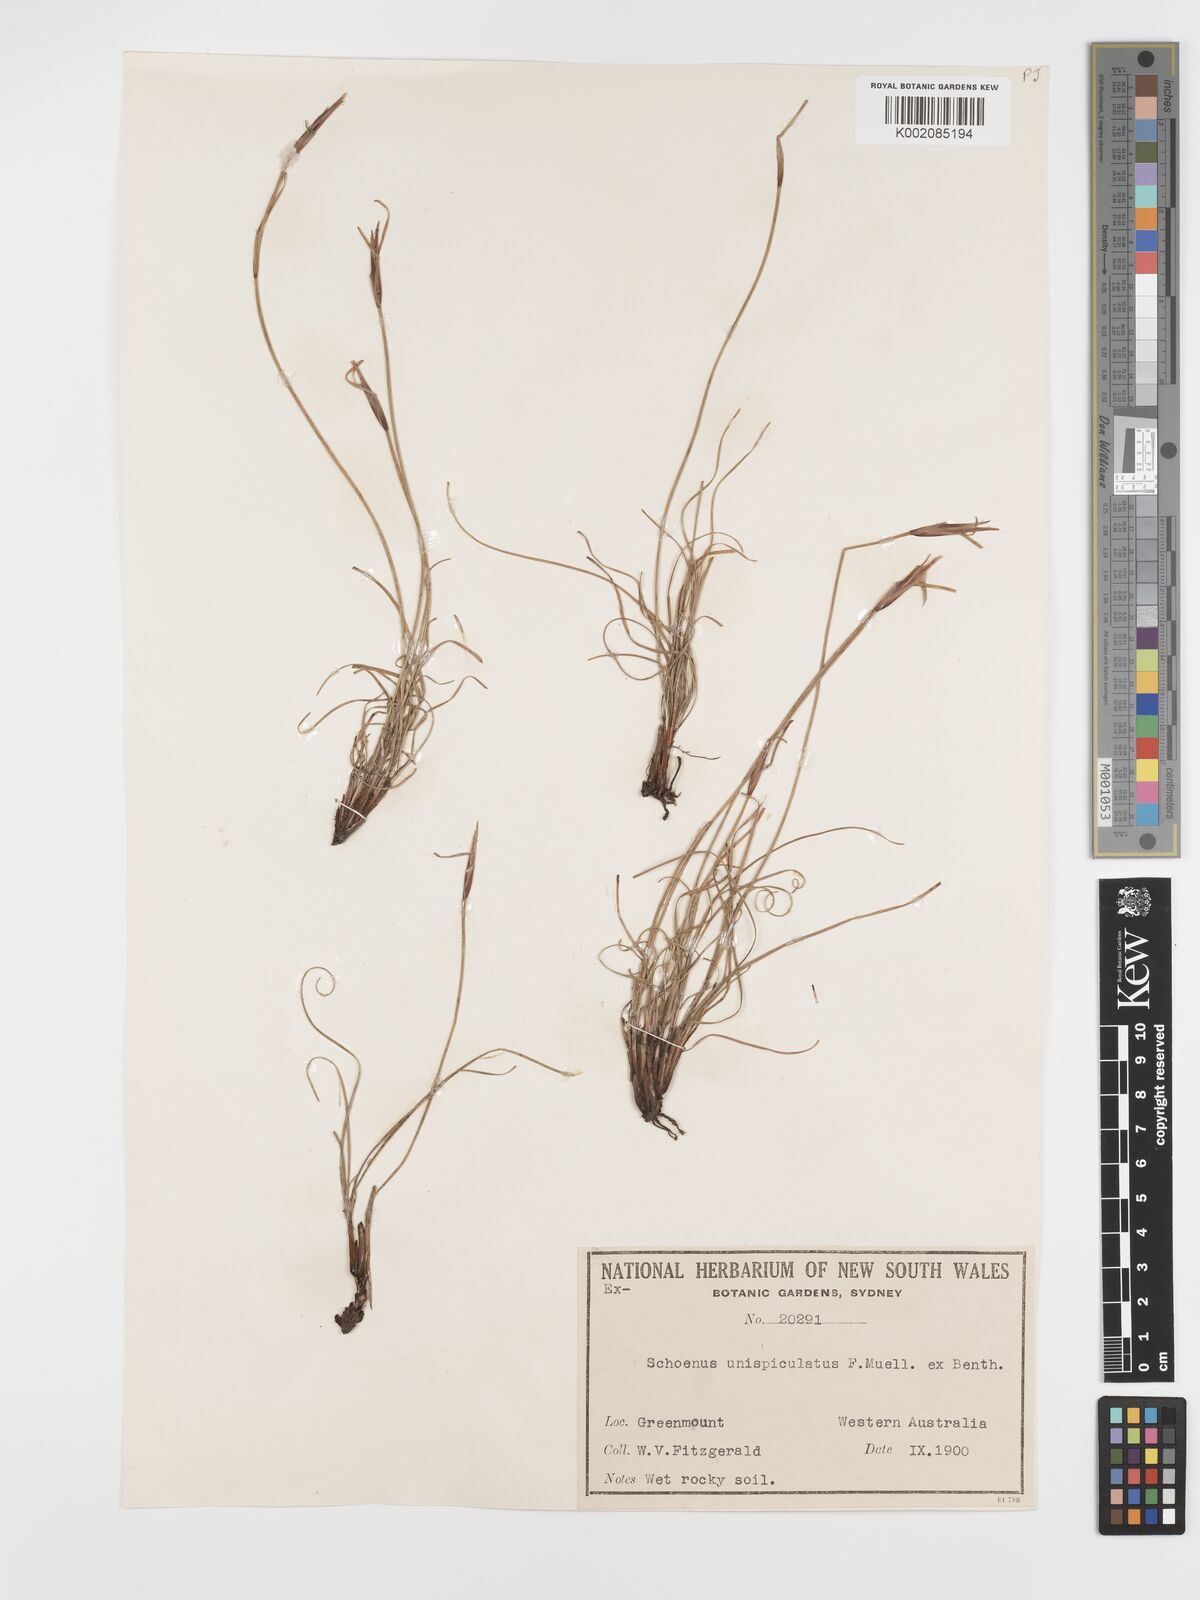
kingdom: Plantae
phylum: Tracheophyta
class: Liliopsida
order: Poales
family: Cyperaceae
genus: Schoenus
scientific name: Schoenus unispiculatus
